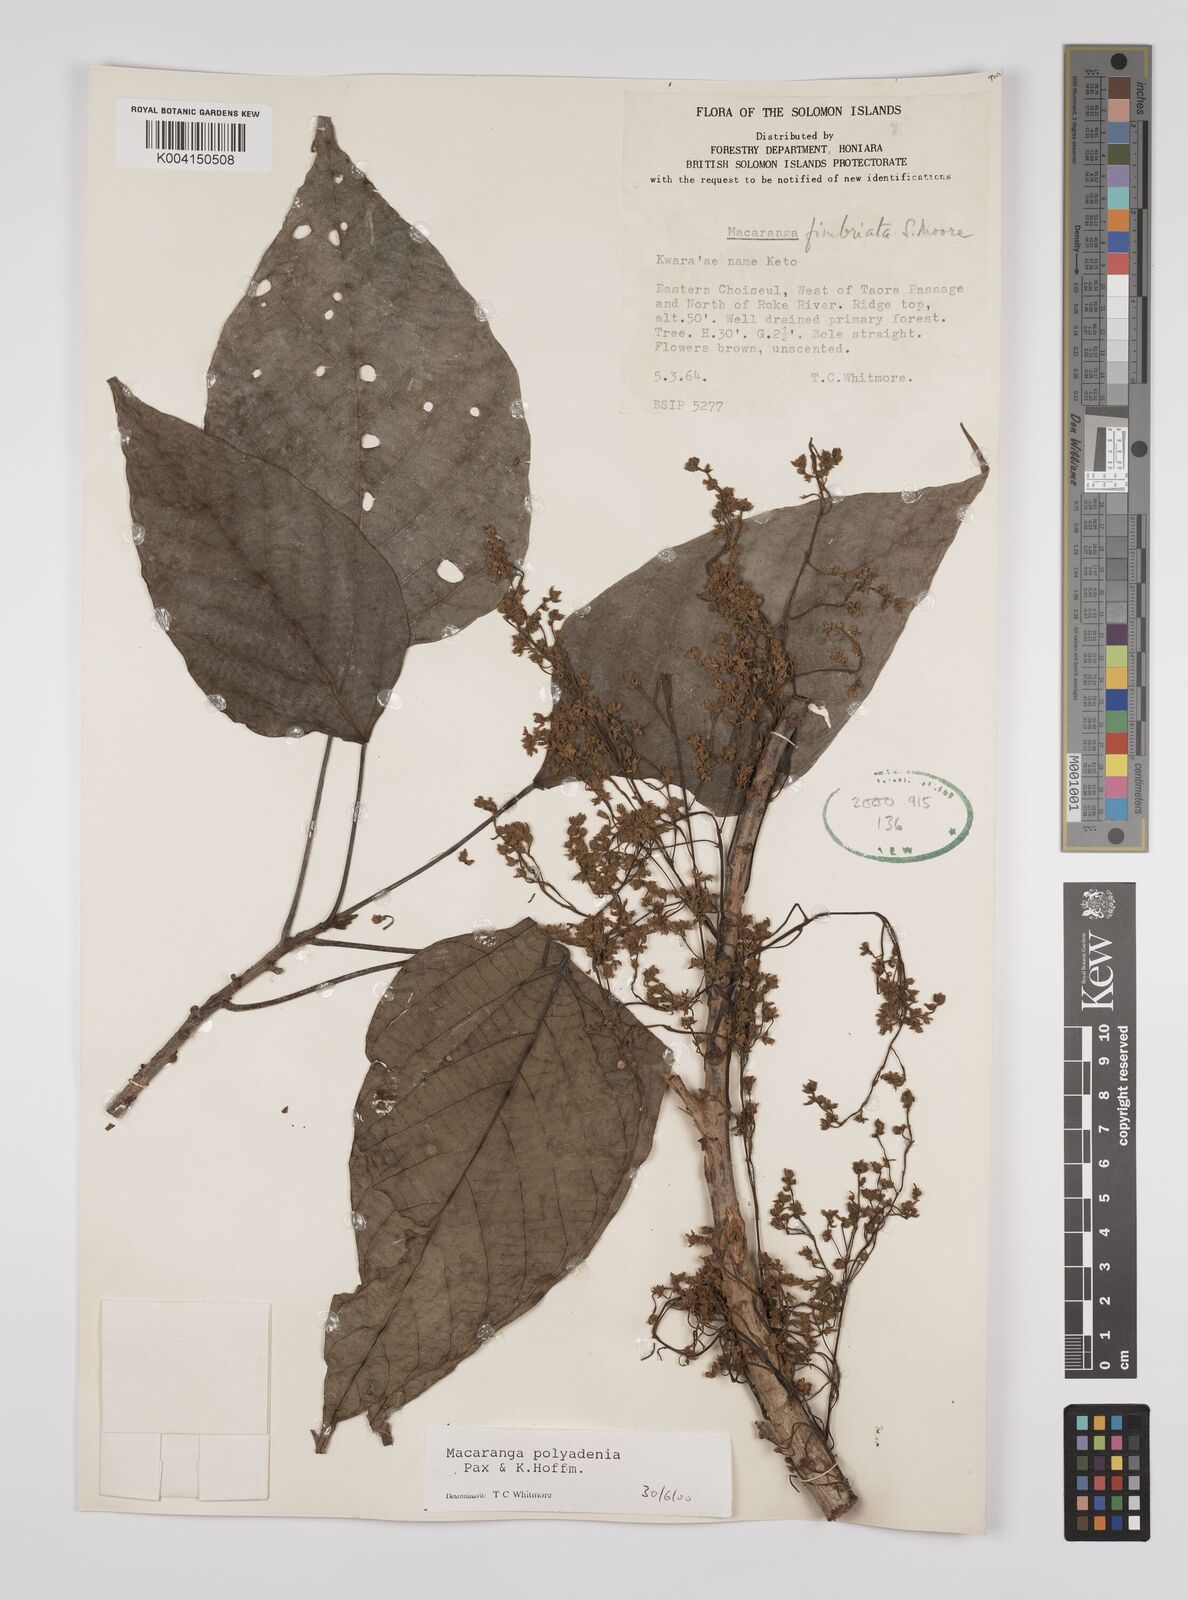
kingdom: Plantae
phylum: Tracheophyta
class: Magnoliopsida
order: Malpighiales
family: Euphorbiaceae
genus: Macaranga
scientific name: Macaranga polyadenia
